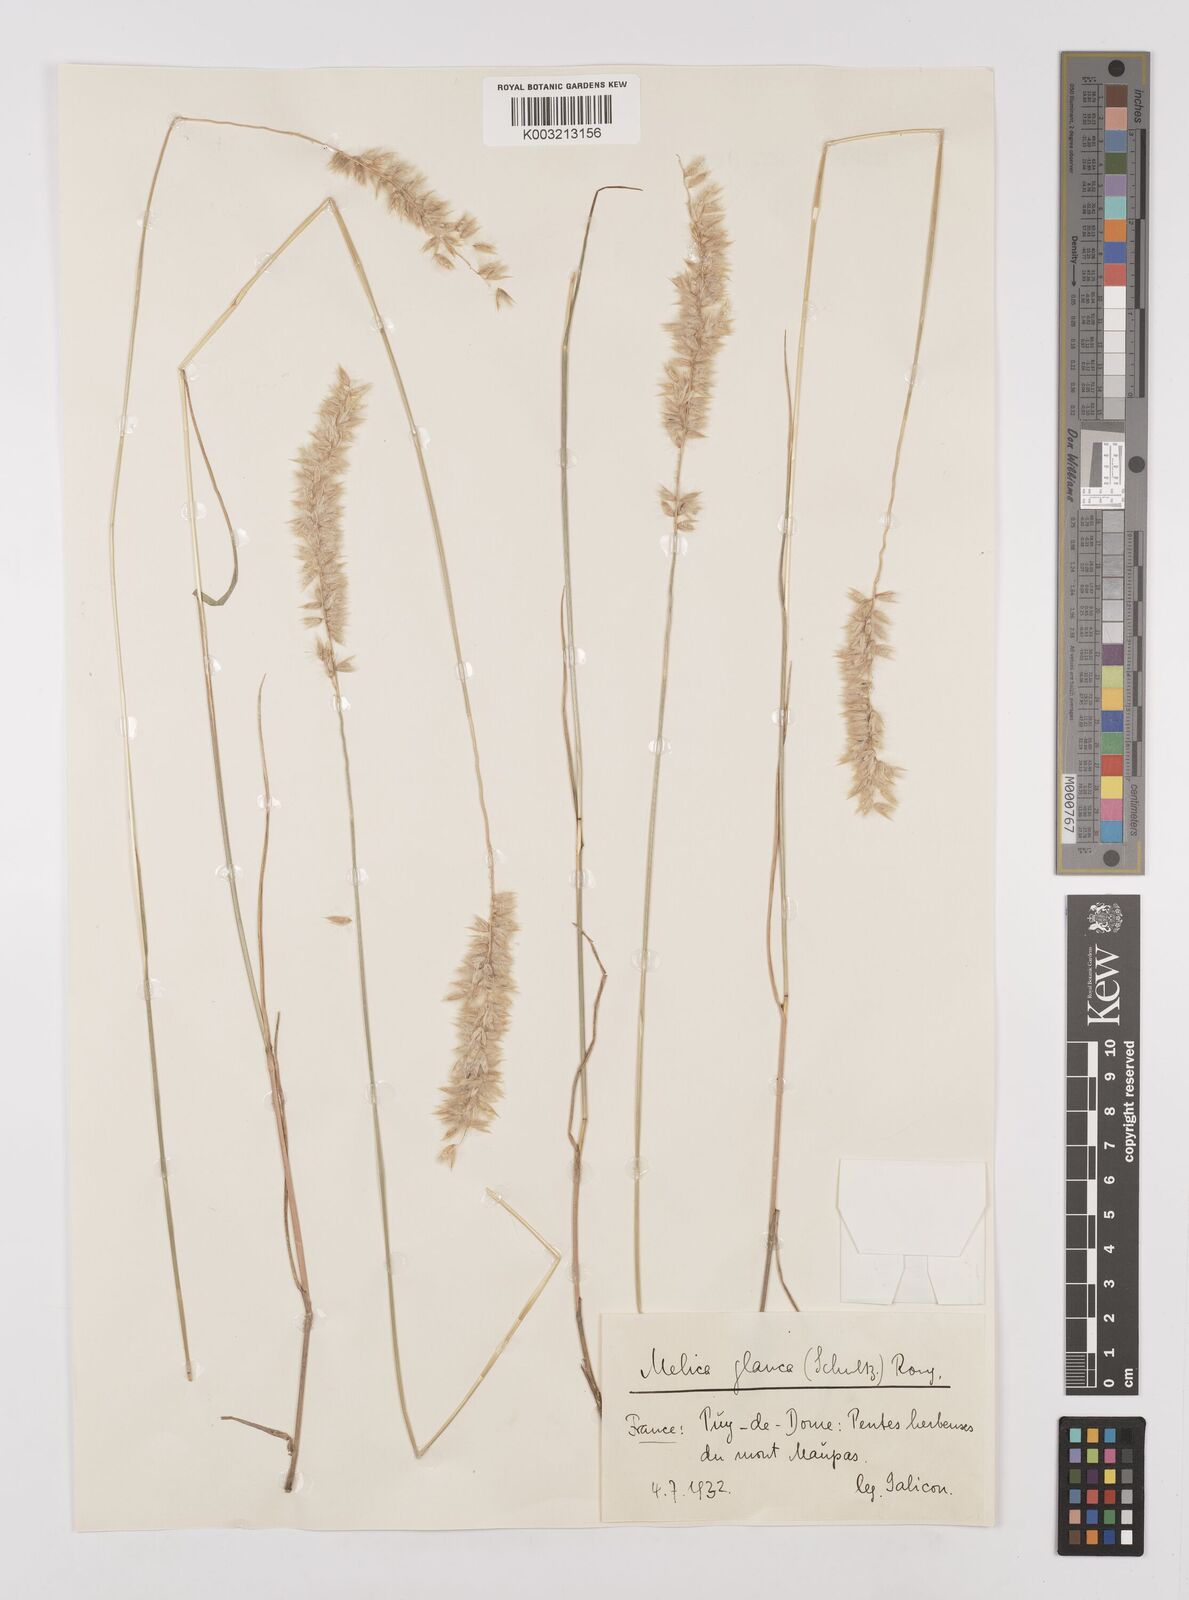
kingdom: Plantae
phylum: Tracheophyta
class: Liliopsida
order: Poales
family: Poaceae
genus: Melica
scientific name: Melica ciliata
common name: Hairy melicgrass
